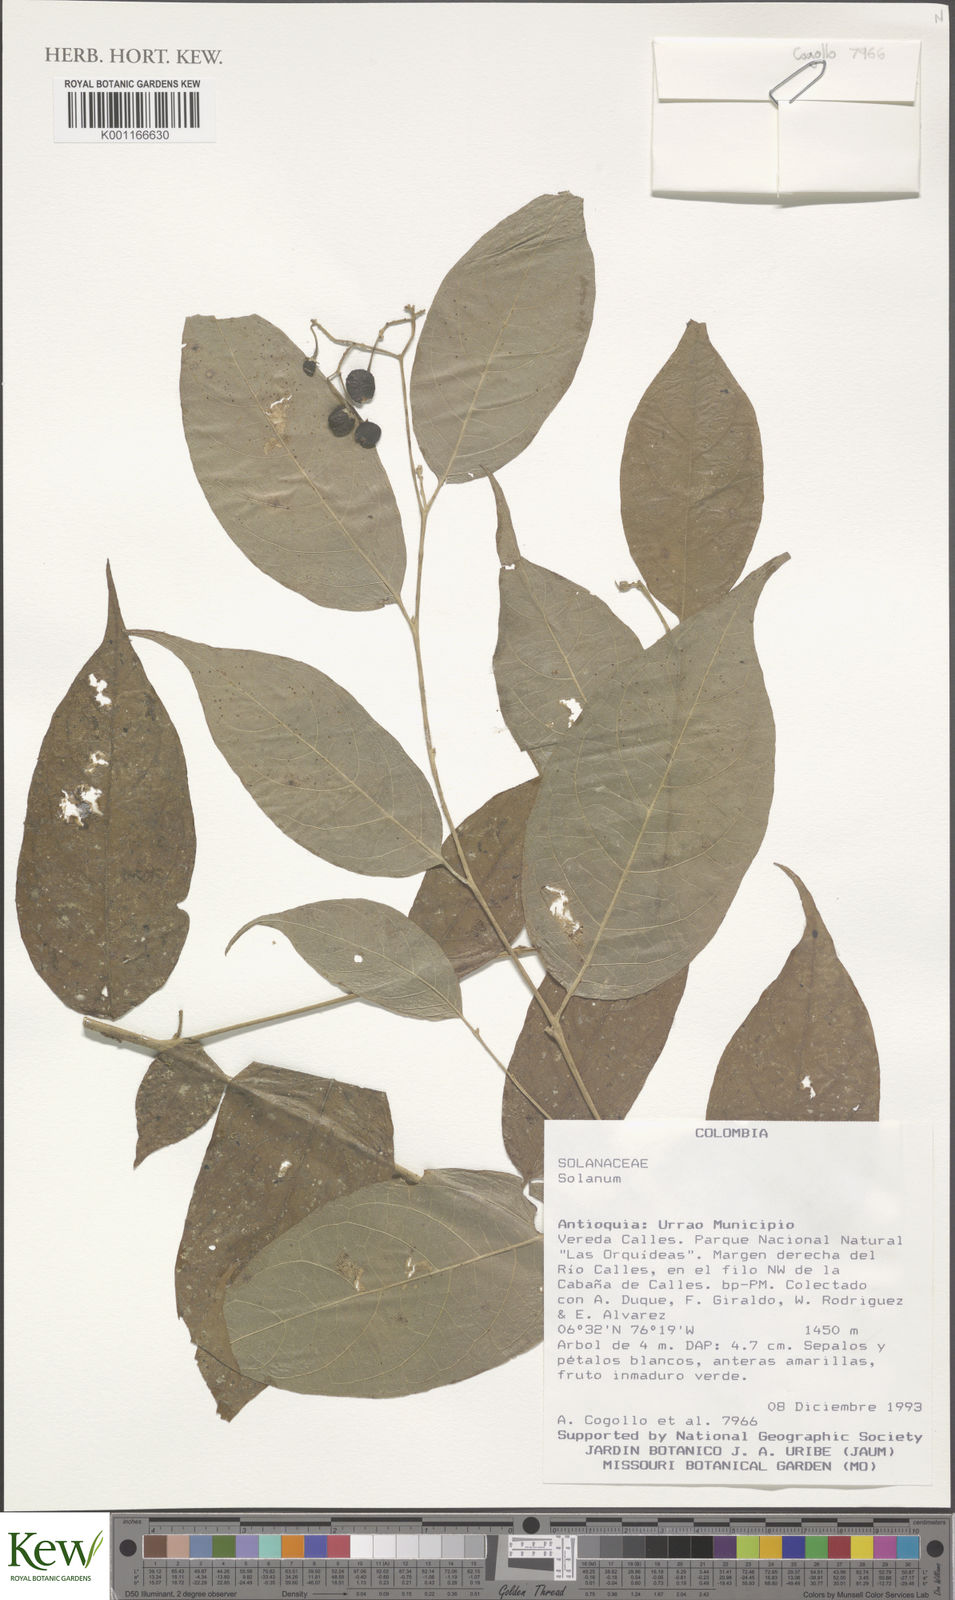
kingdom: Plantae
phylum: Tracheophyta
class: Magnoliopsida
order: Solanales
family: Solanaceae
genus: Solanum
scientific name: Solanum
